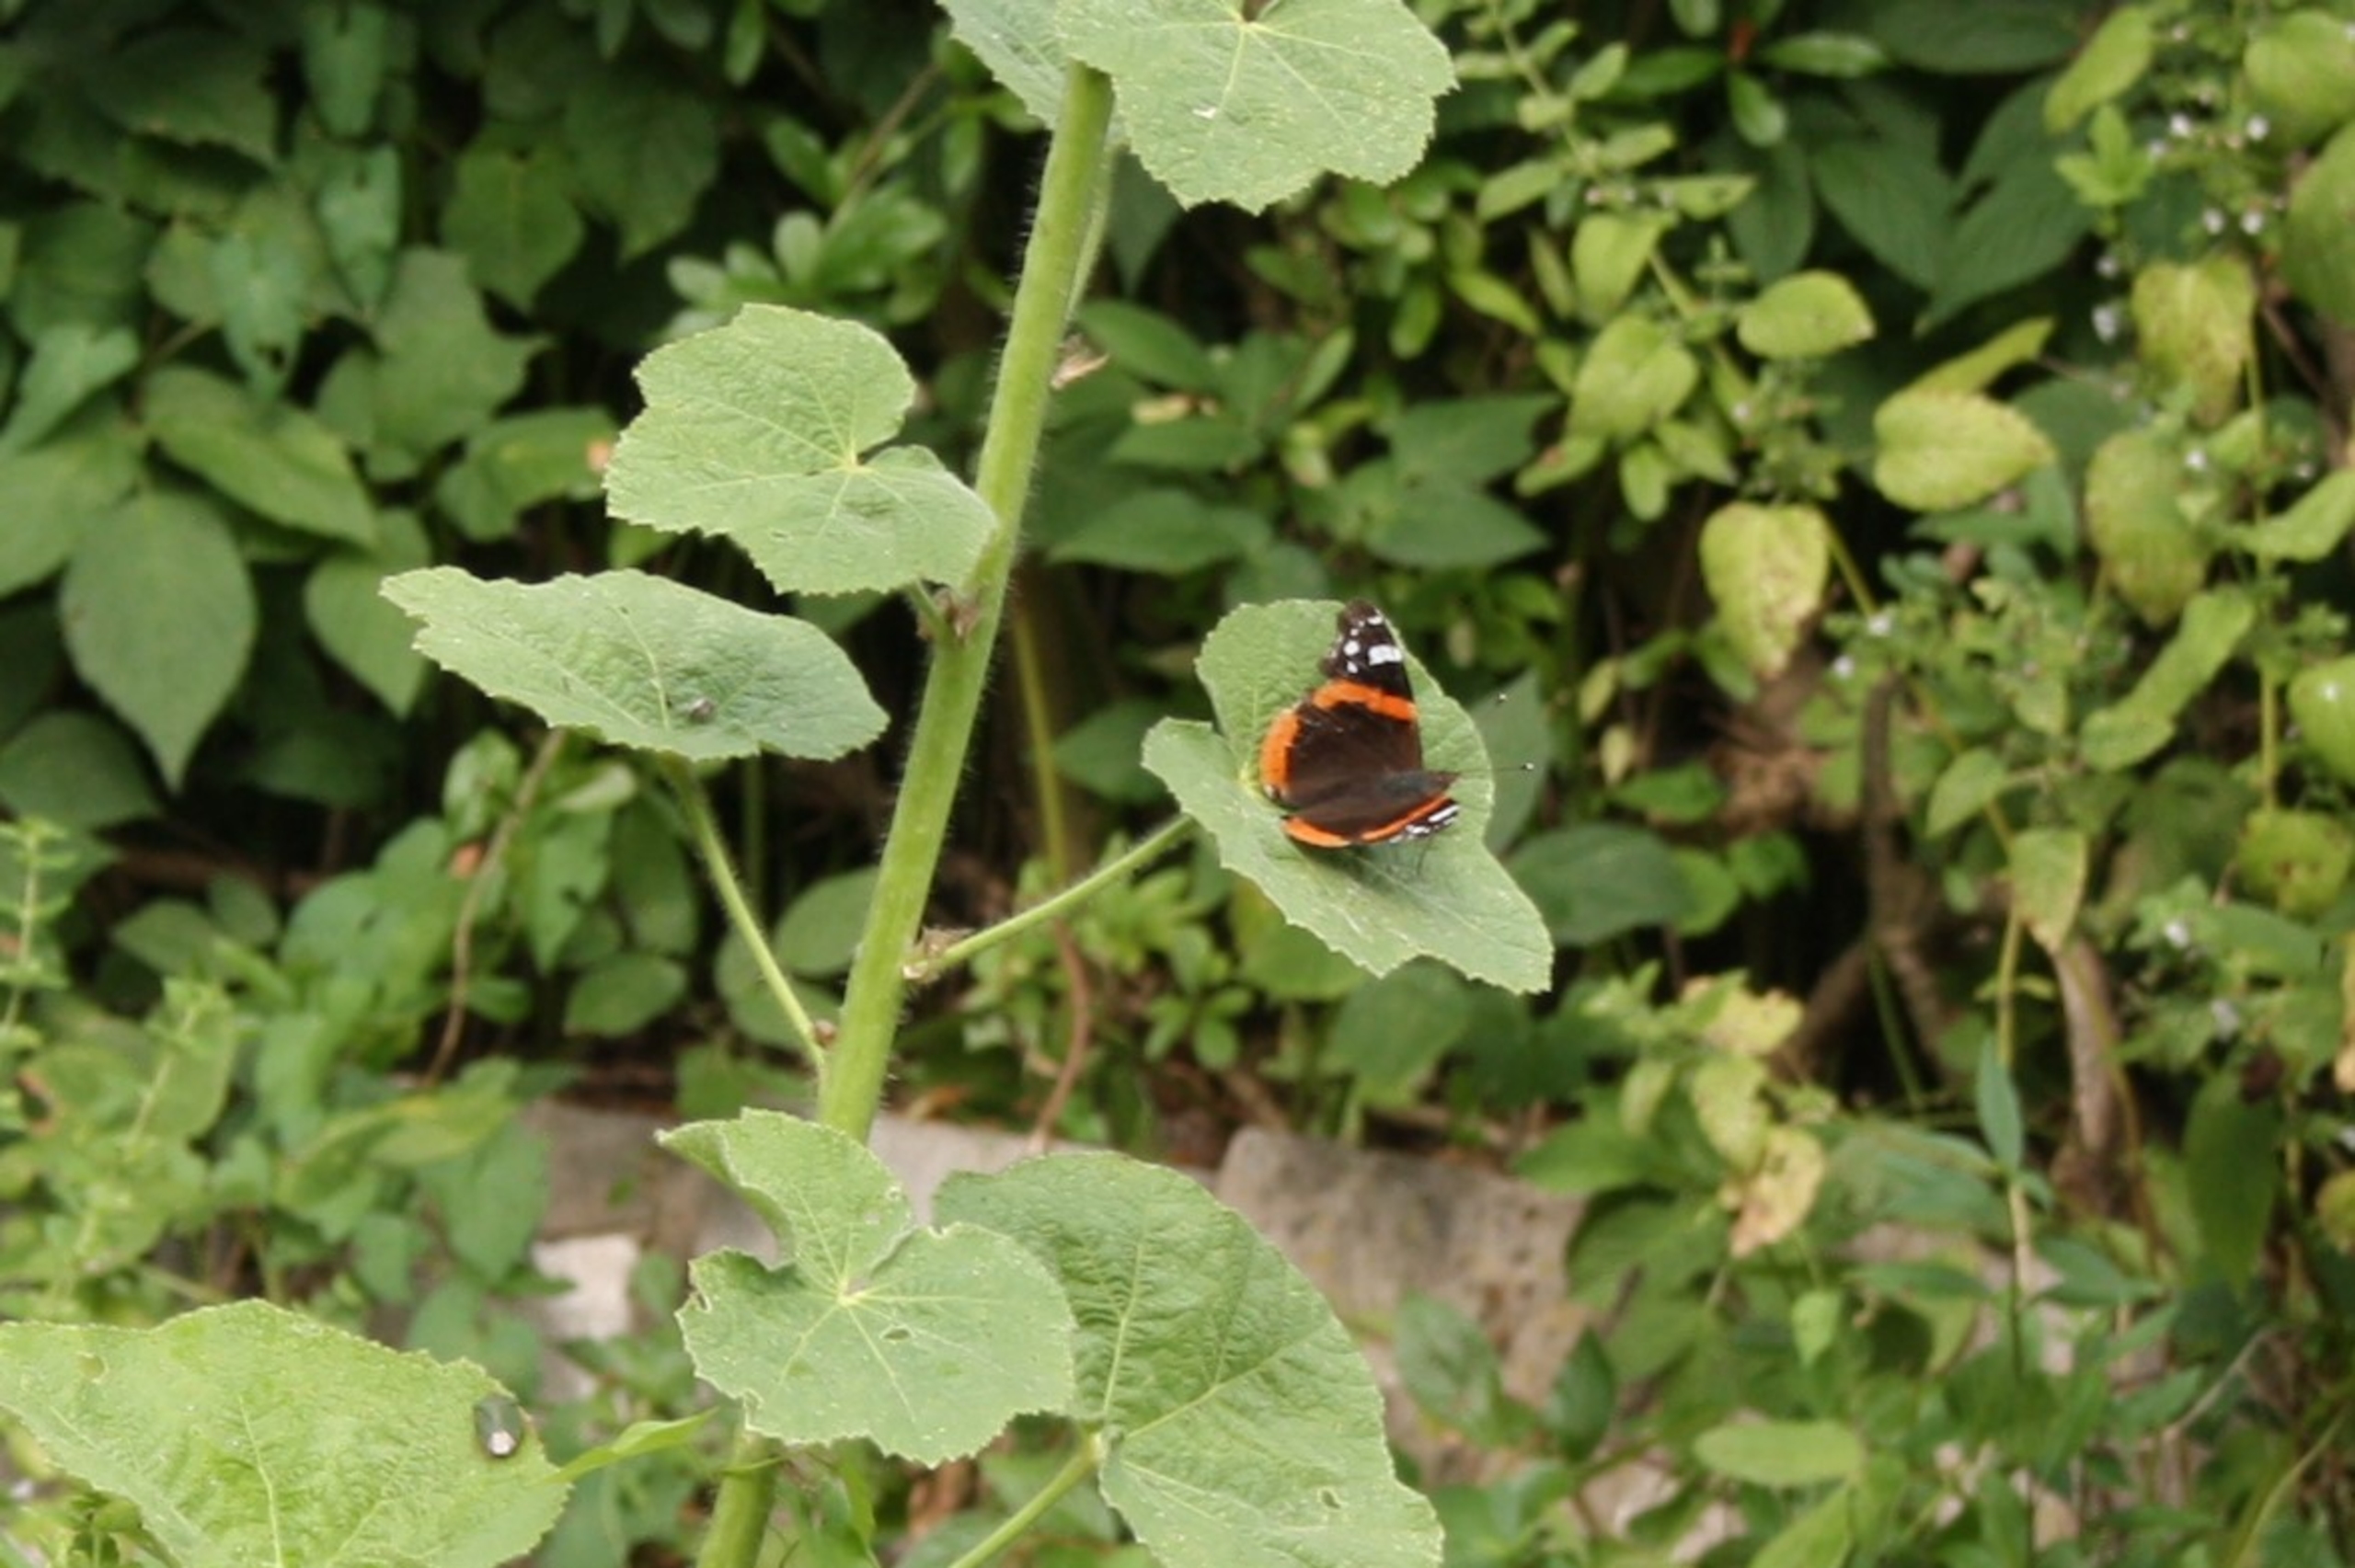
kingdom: Animalia
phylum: Arthropoda
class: Insecta
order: Lepidoptera
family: Nymphalidae
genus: Vanessa
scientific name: Vanessa atalanta
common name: Admiral
